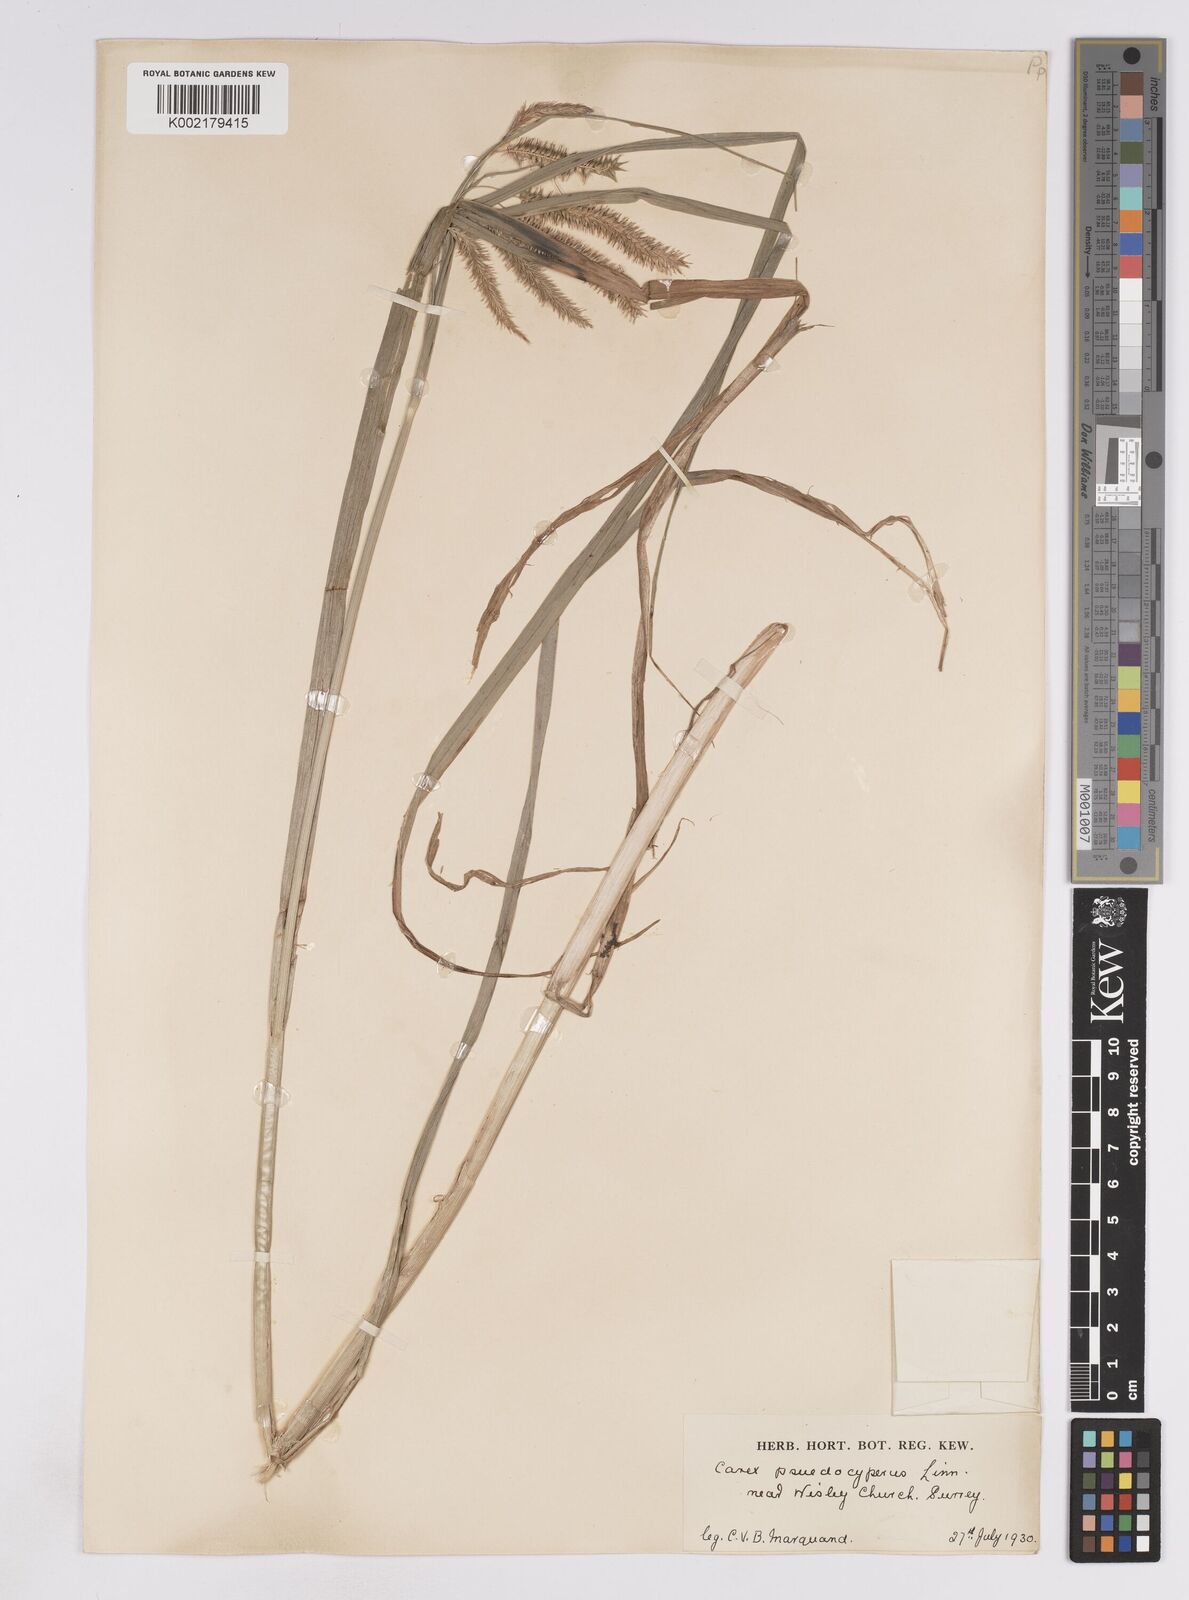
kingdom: Plantae
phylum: Tracheophyta
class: Liliopsida
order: Poales
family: Cyperaceae
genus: Carex
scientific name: Carex pseudocyperus
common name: Cyperus sedge
